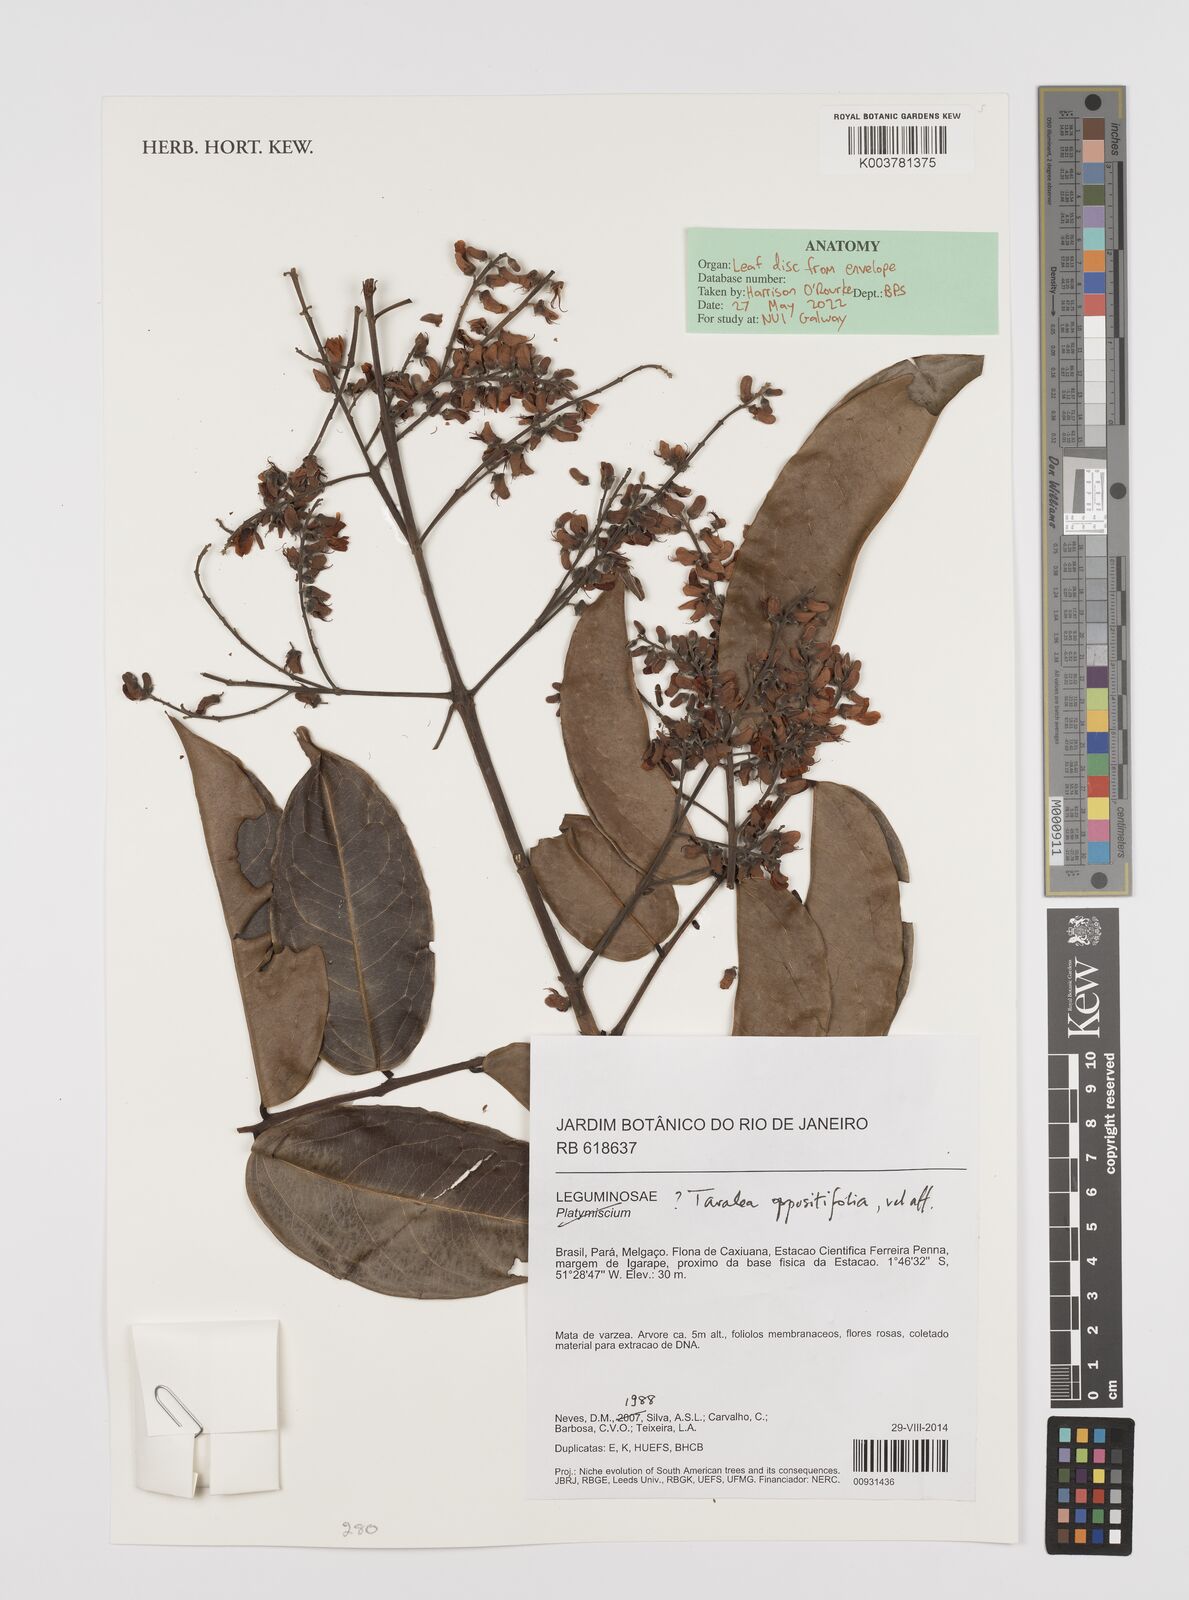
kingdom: Plantae
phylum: Tracheophyta
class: Magnoliopsida
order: Fabales
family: Fabaceae
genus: Taralea
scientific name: Taralea oppositifolia
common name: Tonka
